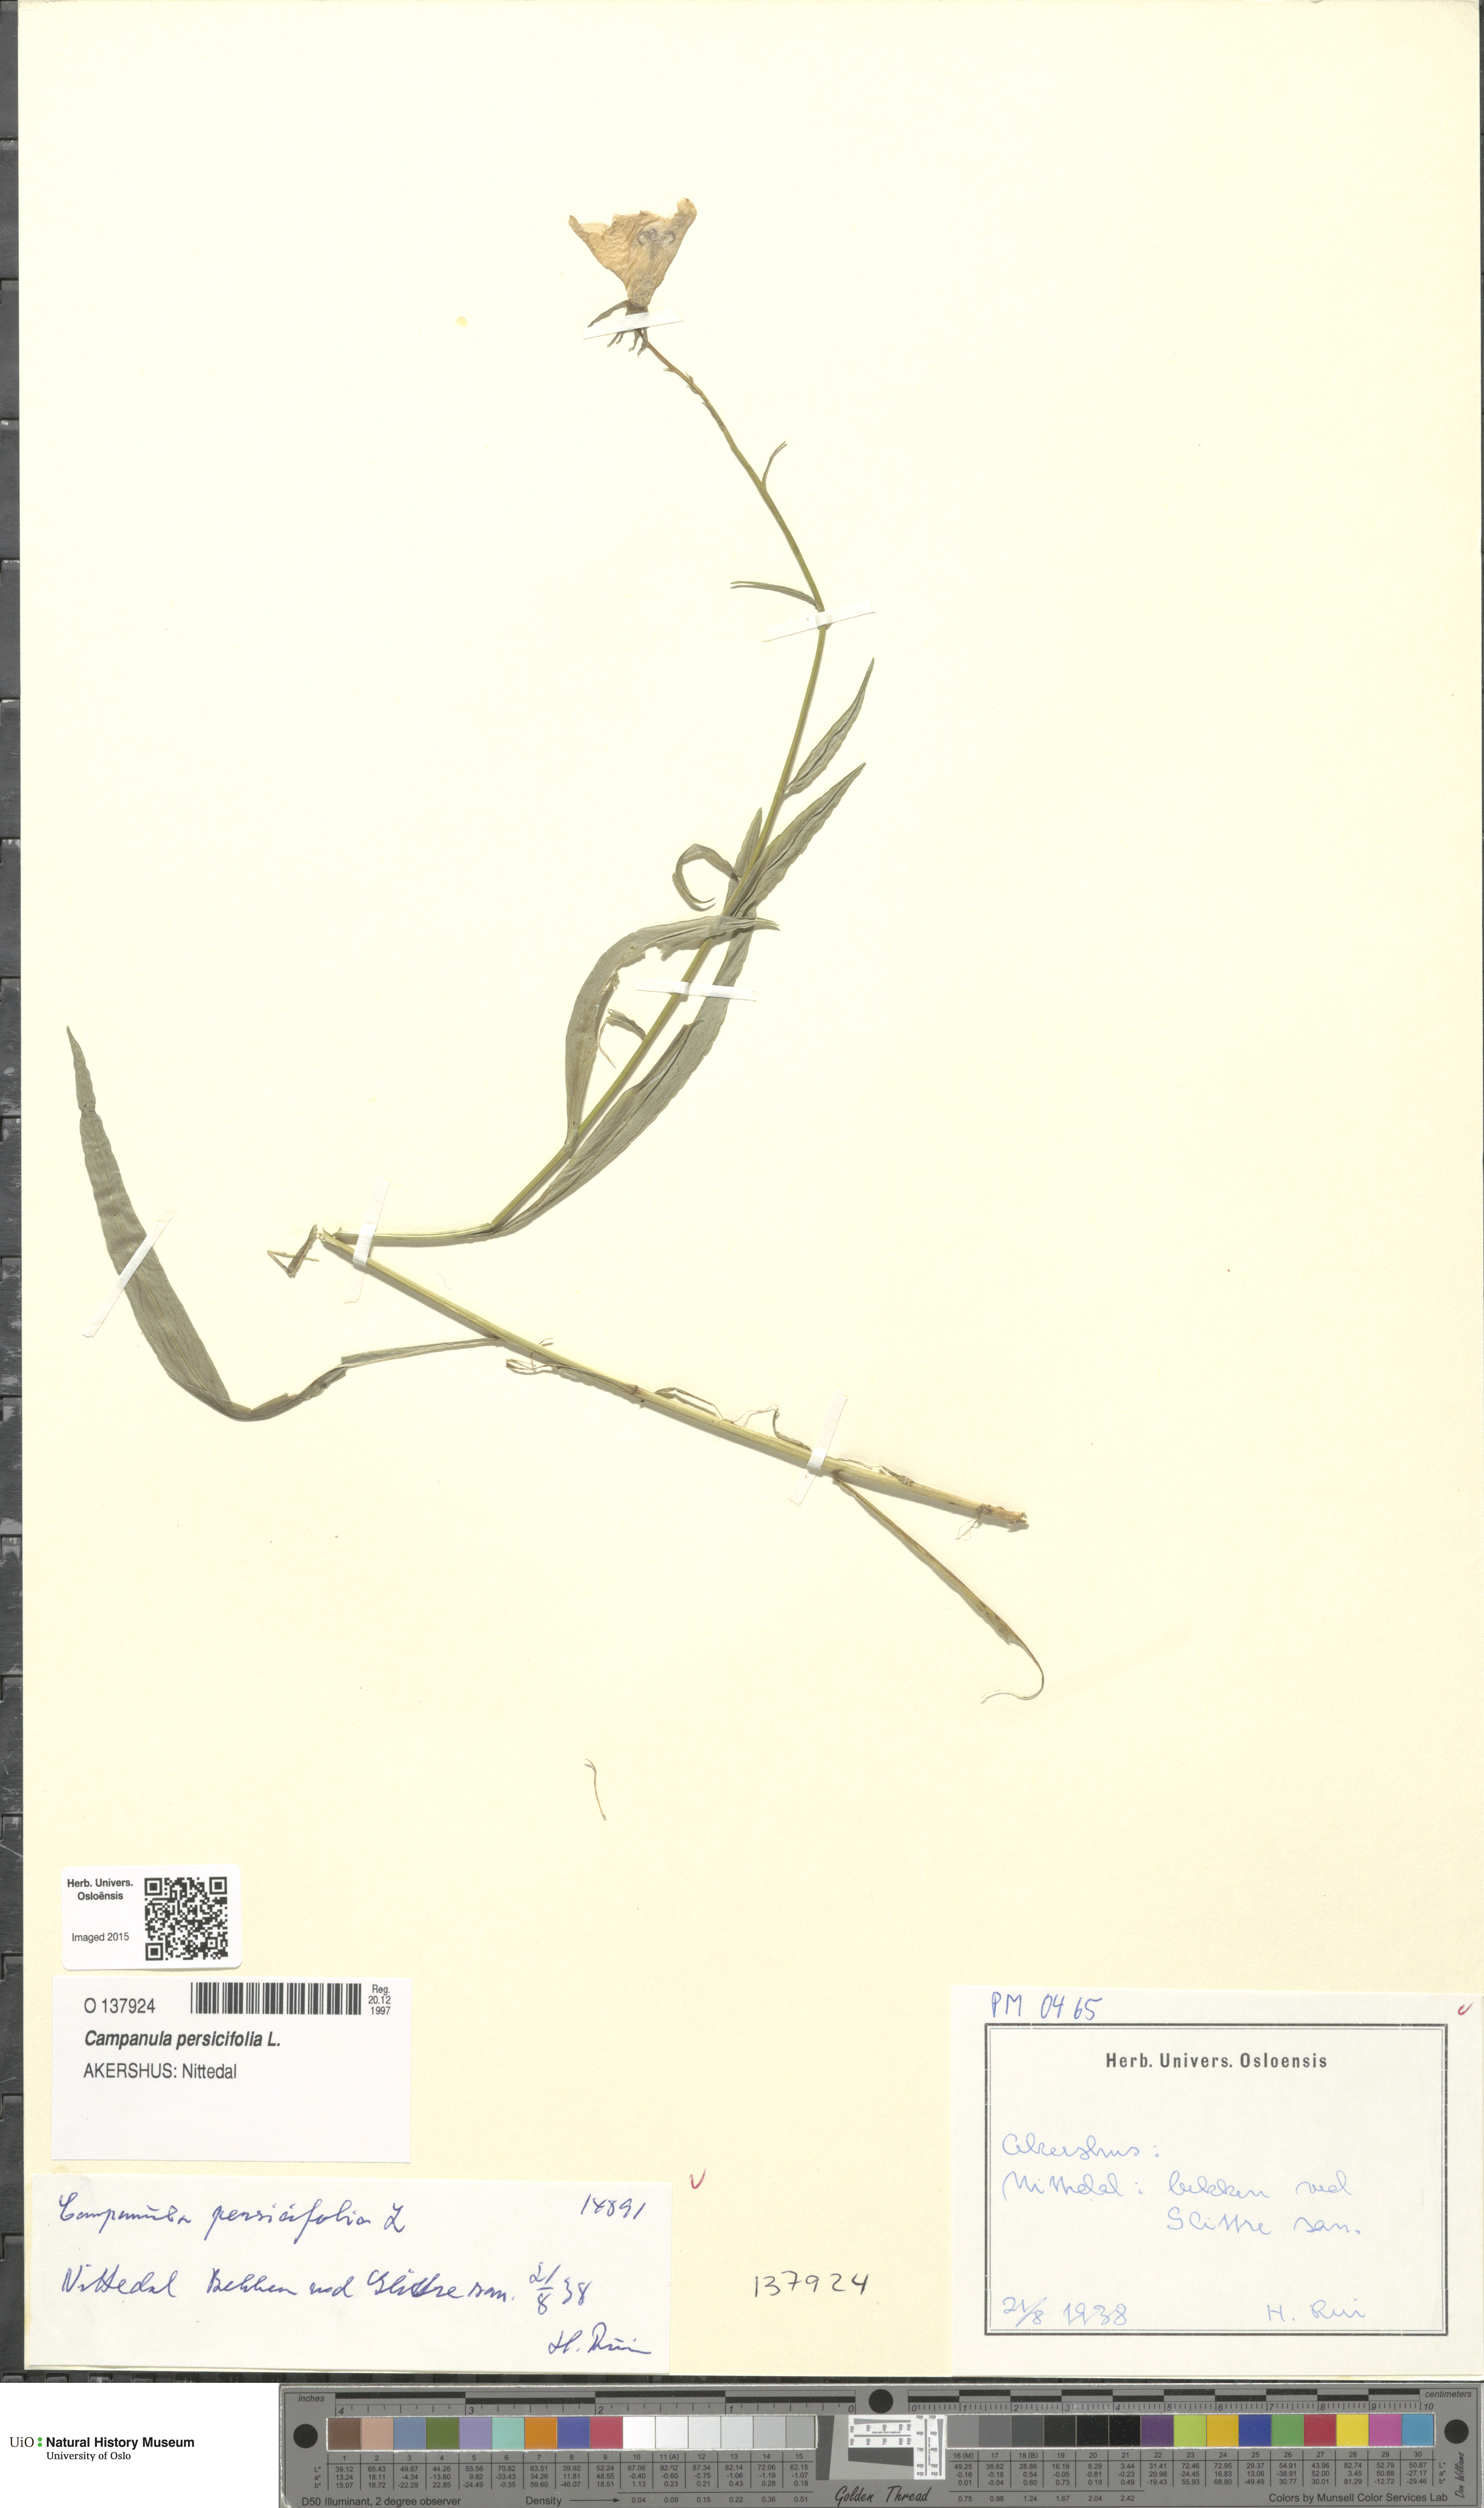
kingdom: Plantae
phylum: Tracheophyta
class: Magnoliopsida
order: Asterales
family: Campanulaceae
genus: Campanula
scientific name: Campanula persicifolia
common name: Peach-leaved bellflower
